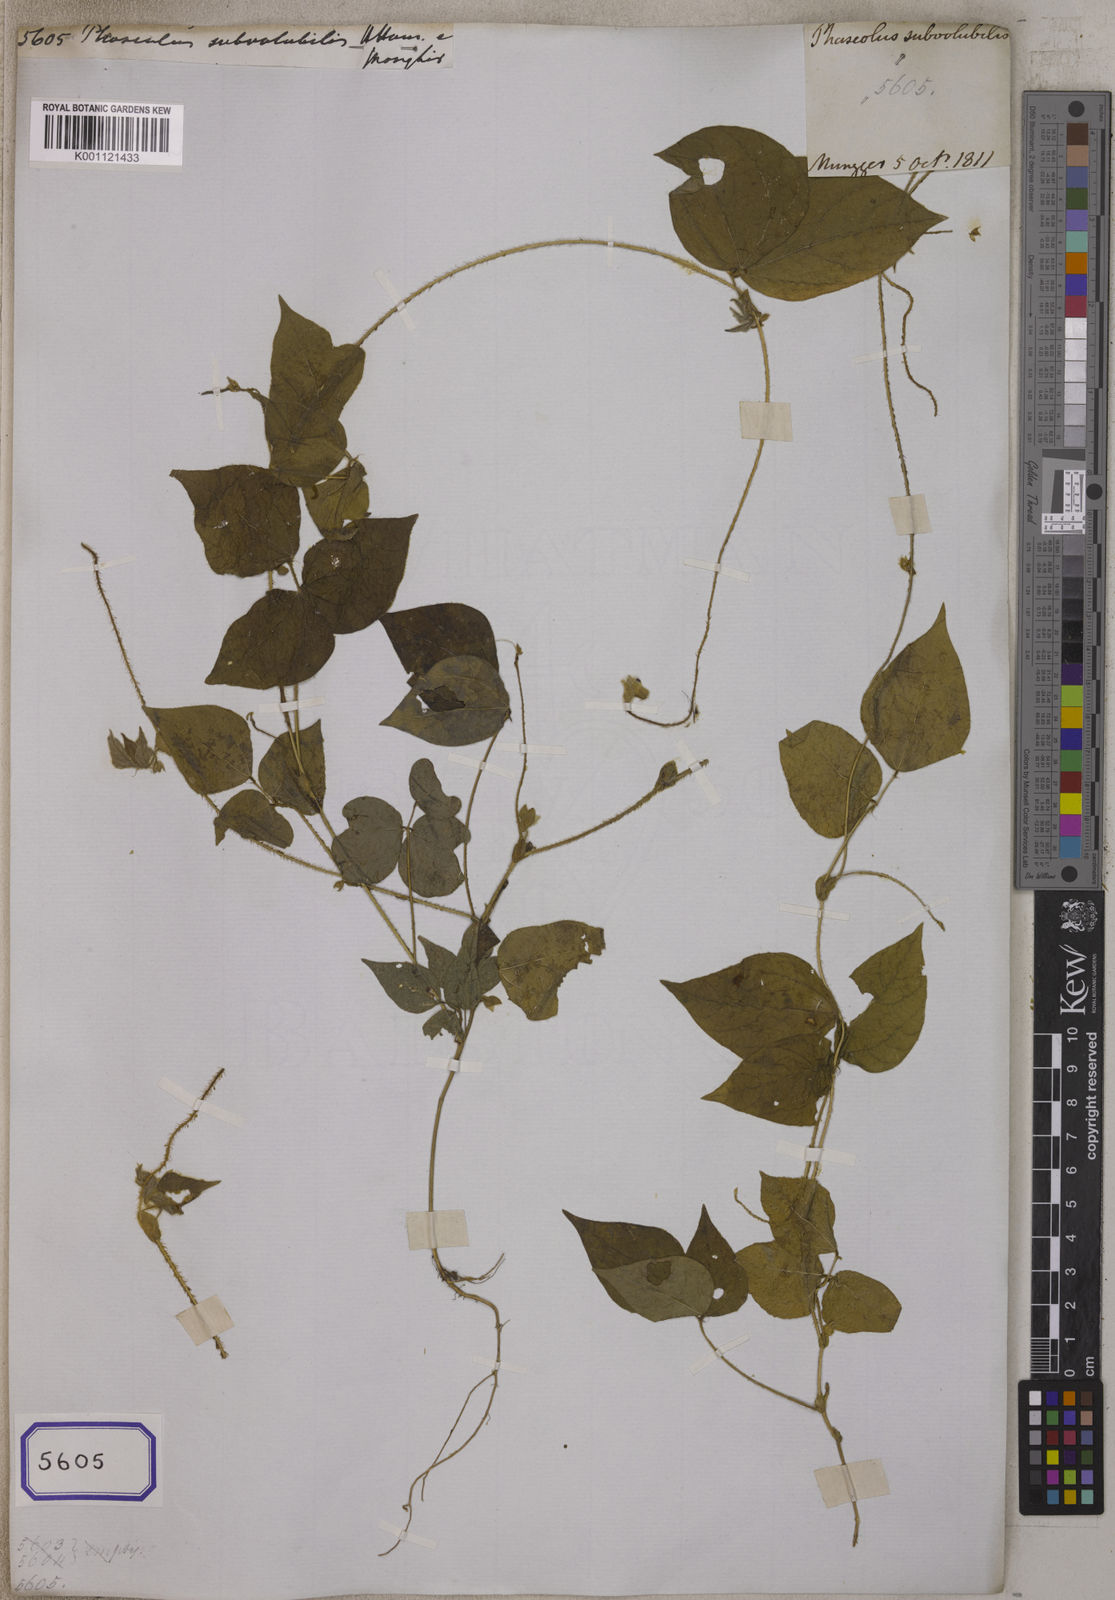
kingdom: Plantae
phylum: Tracheophyta
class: Magnoliopsida
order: Fabales
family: Fabaceae
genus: Vigna
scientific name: Vigna mungo
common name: Black gram
